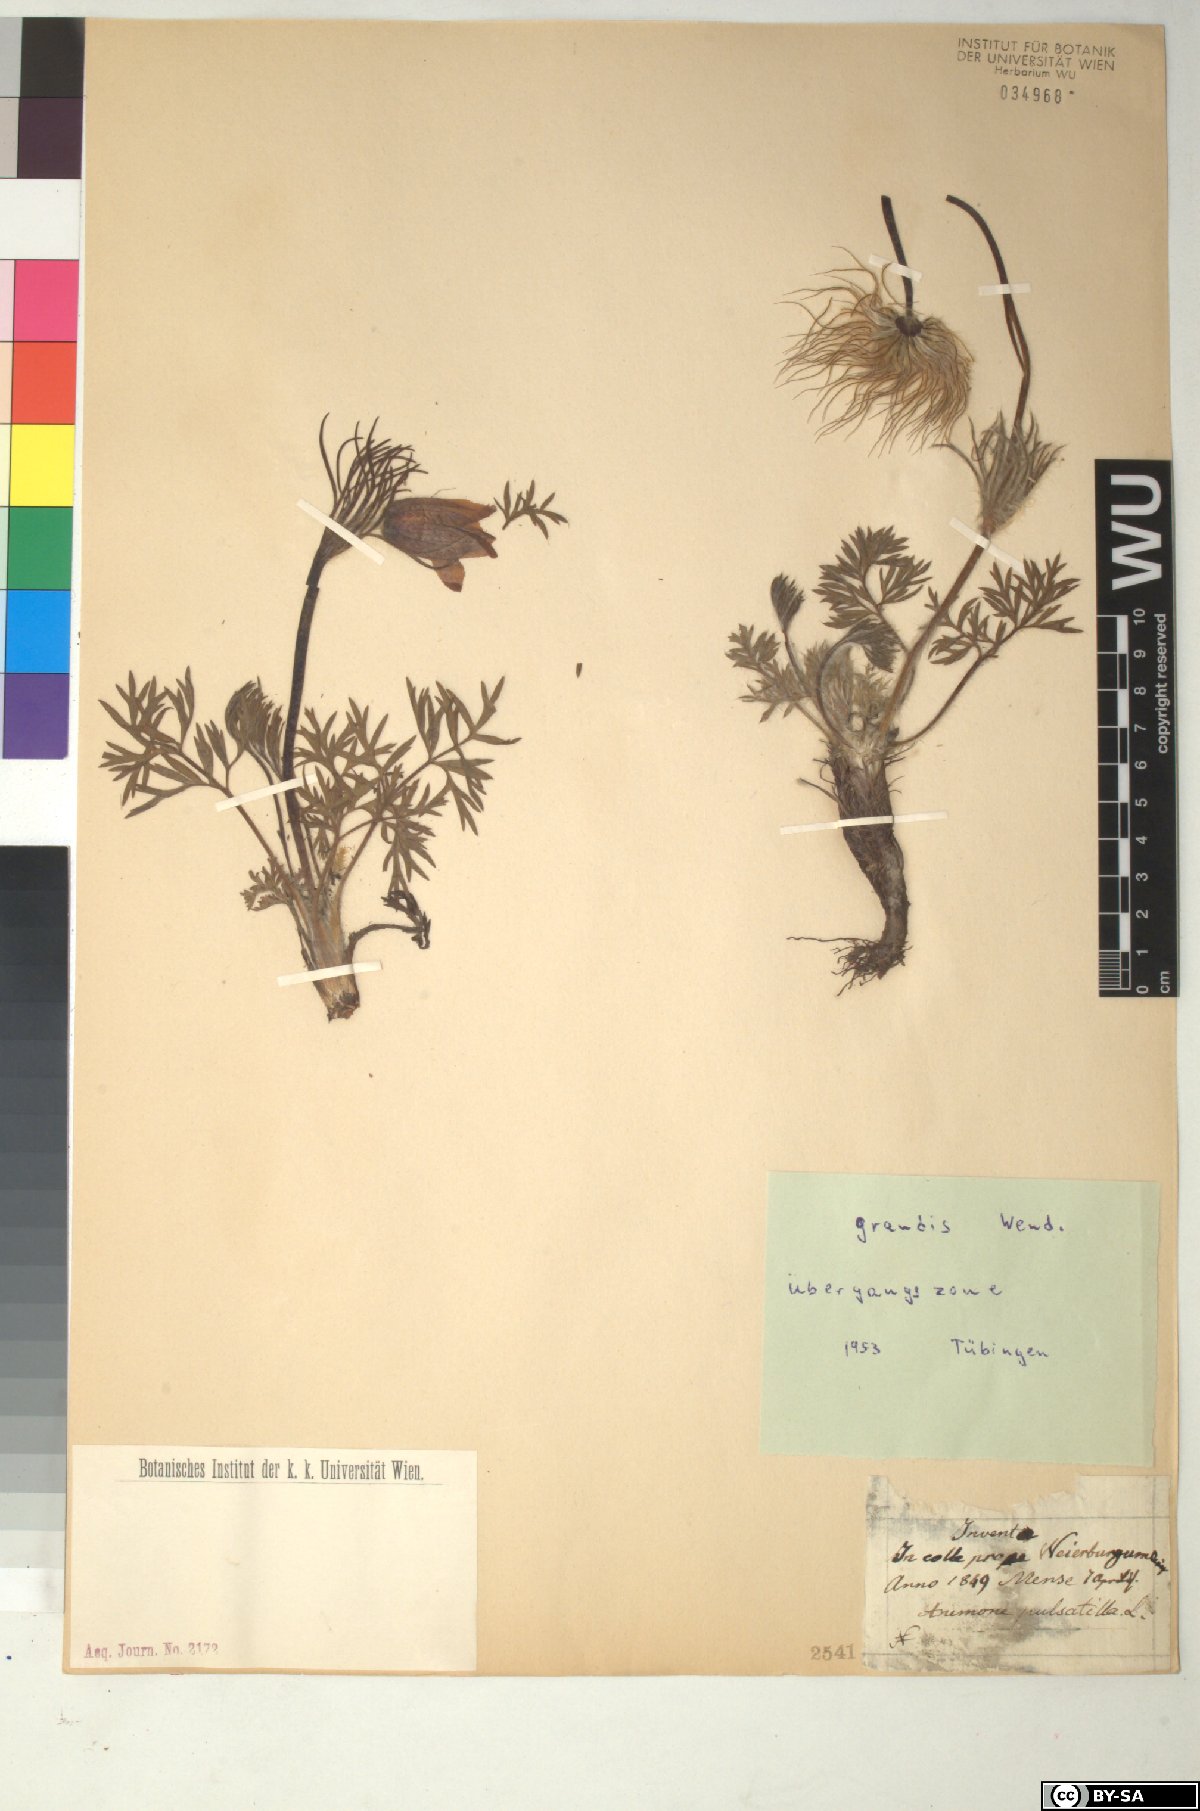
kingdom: Plantae
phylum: Tracheophyta
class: Magnoliopsida
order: Ranunculales
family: Ranunculaceae
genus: Pulsatilla
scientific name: Pulsatilla vulgaris
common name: Pasqueflower
